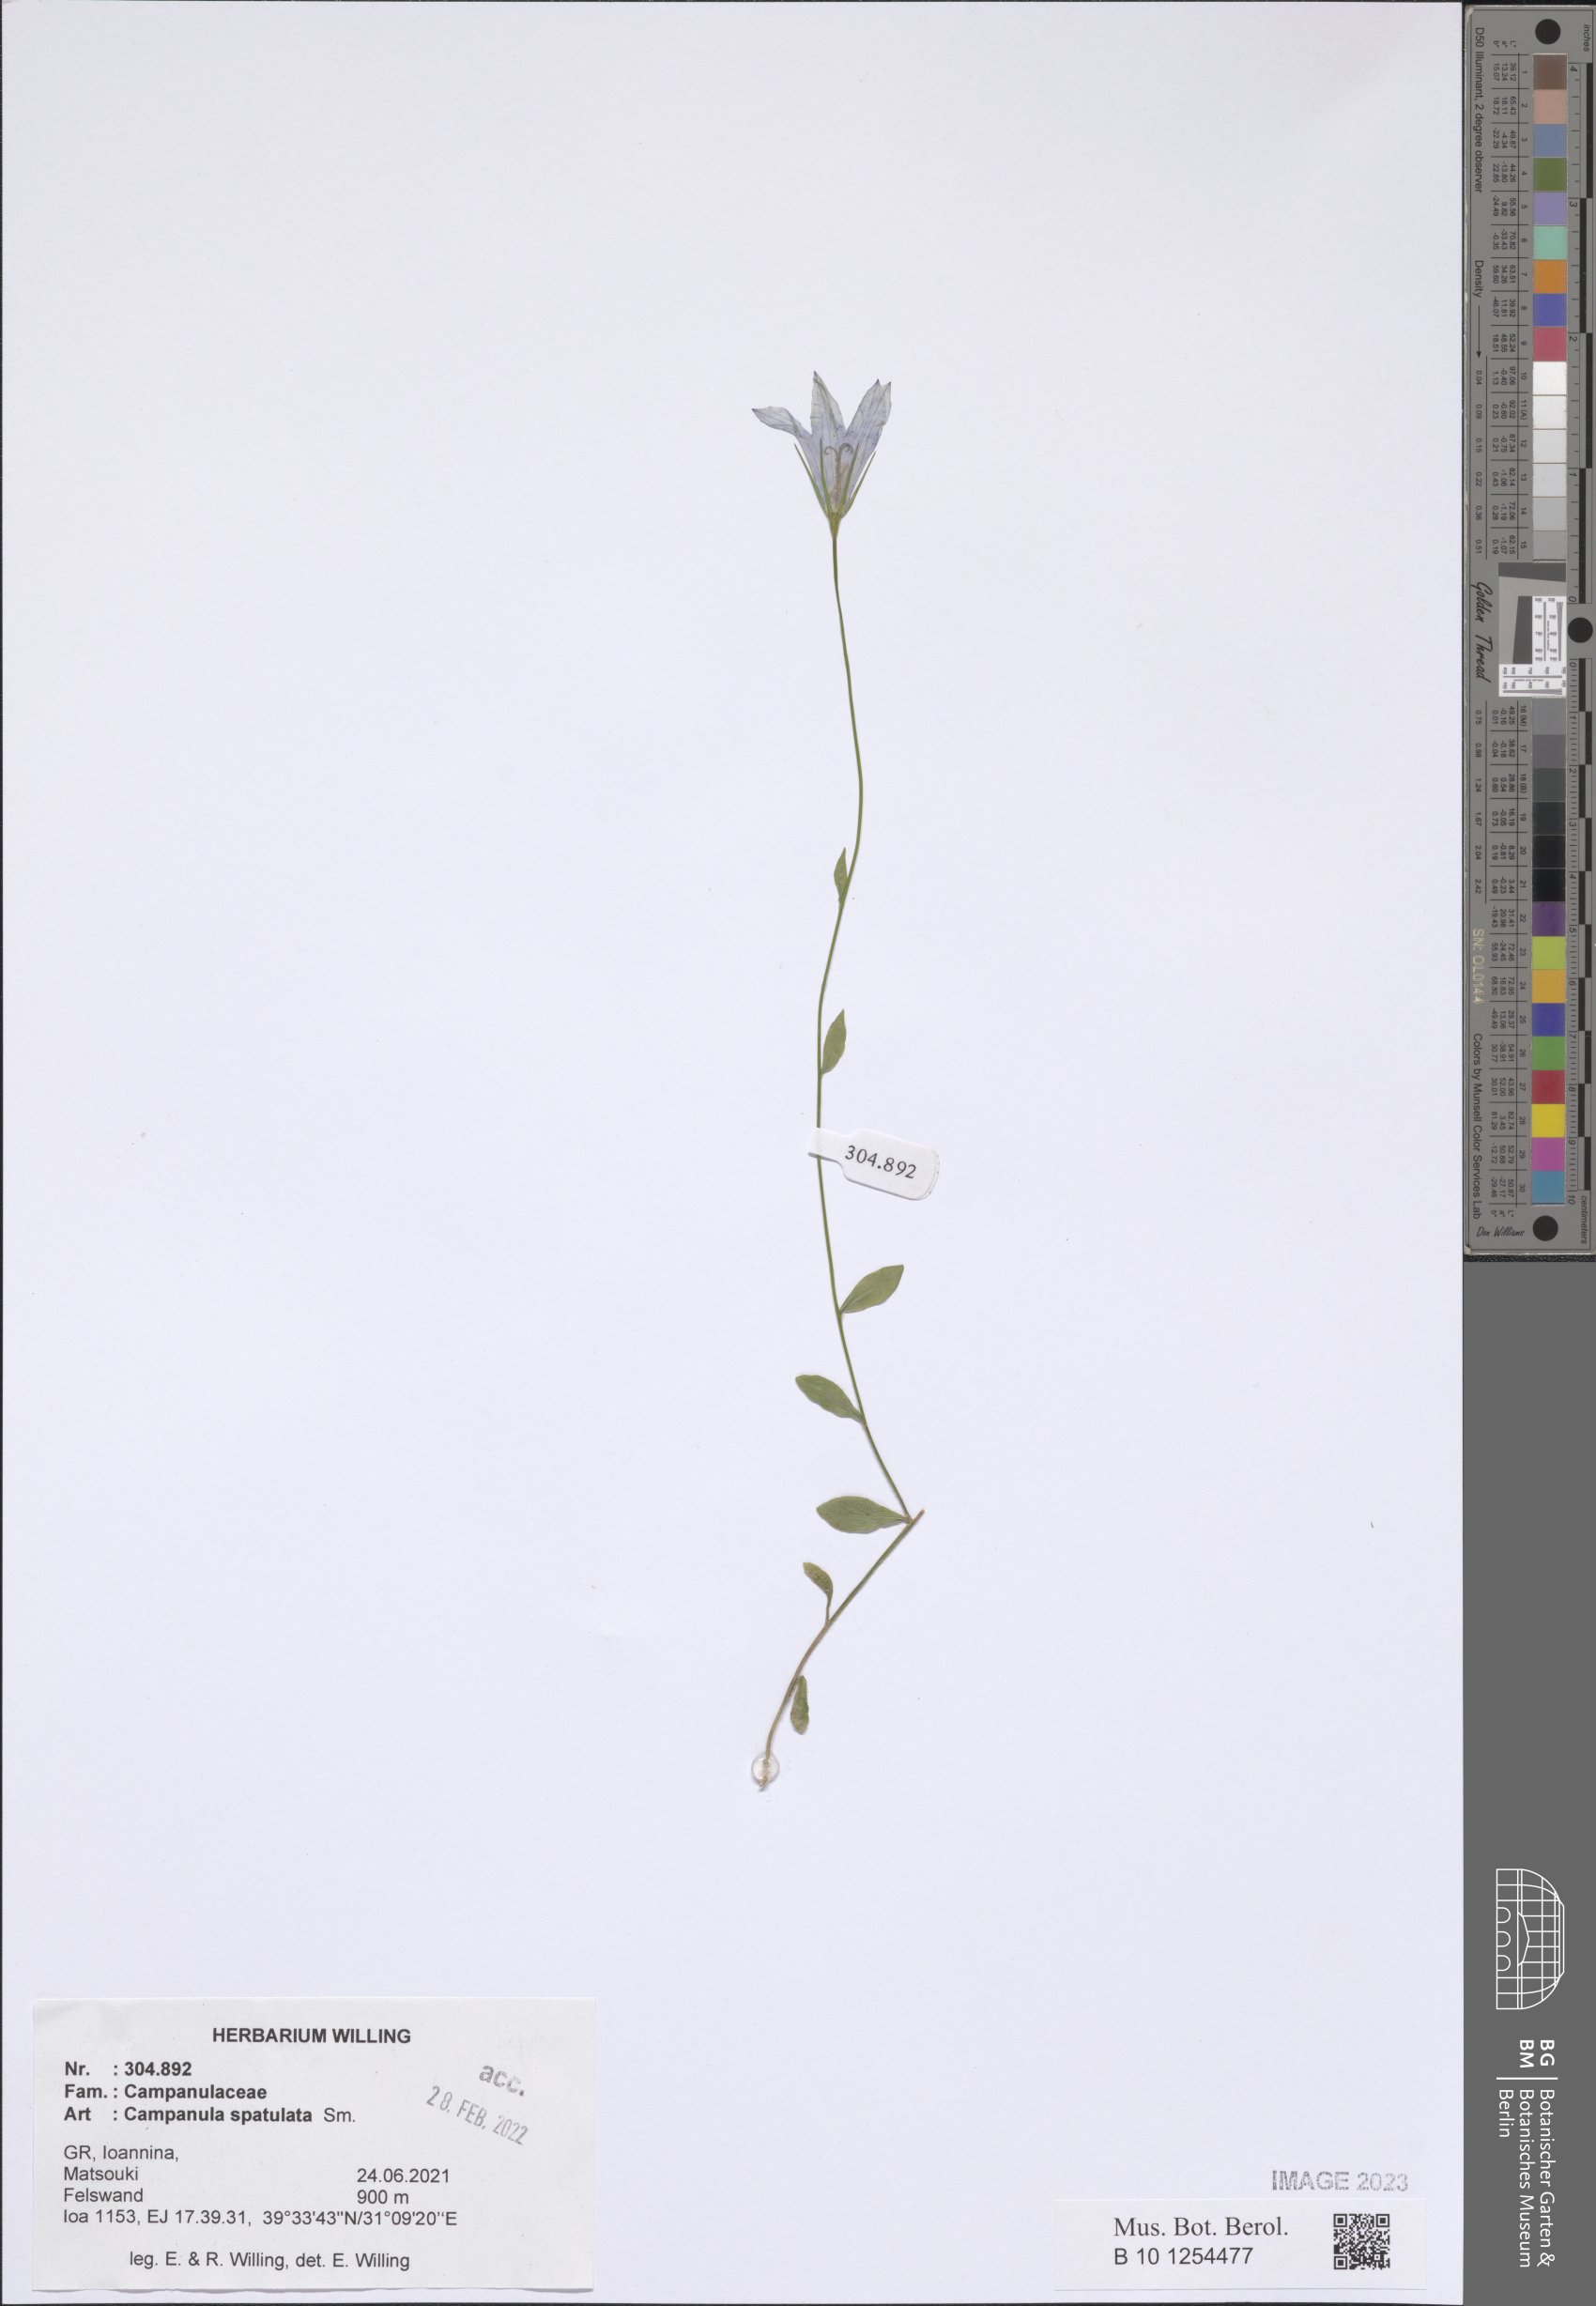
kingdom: Plantae
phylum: Tracheophyta
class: Magnoliopsida
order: Asterales
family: Campanulaceae
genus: Campanula
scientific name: Campanula spatulata
